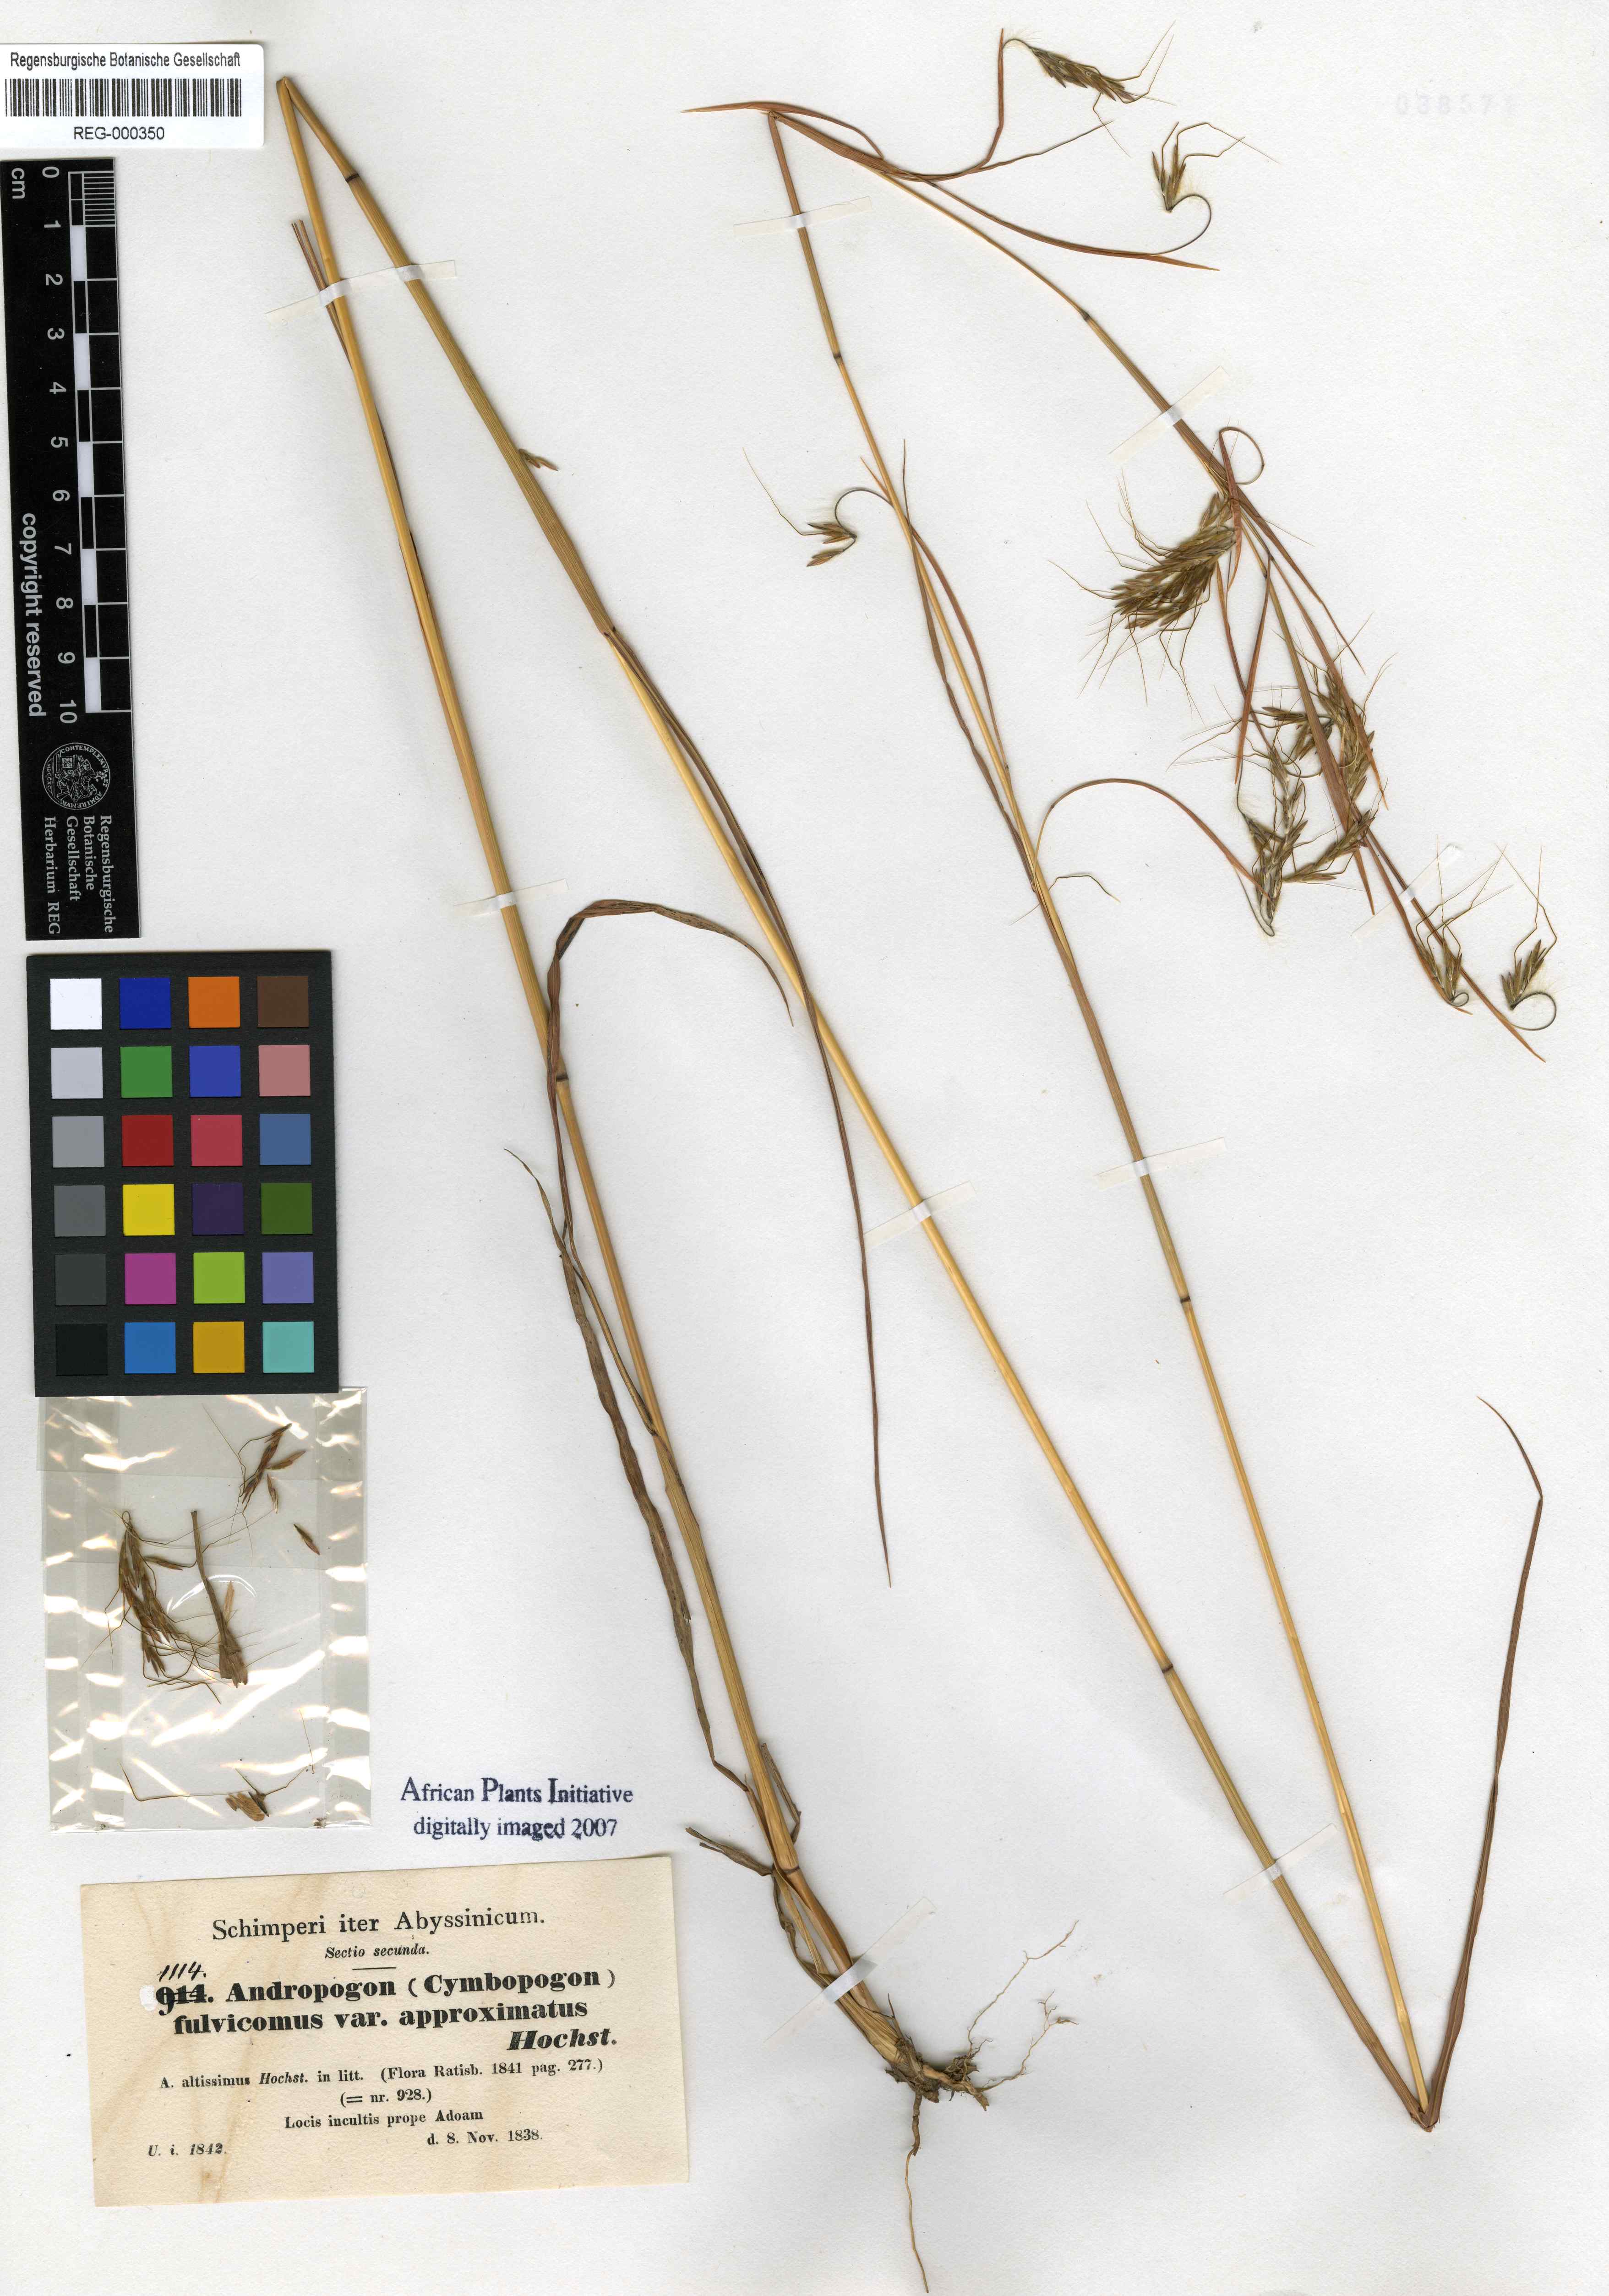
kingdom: Plantae
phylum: Tracheophyta
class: Liliopsida
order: Poales
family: Poaceae
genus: Hyparrhenia
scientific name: Hyparrhenia rufa
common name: Jaraguagrass
